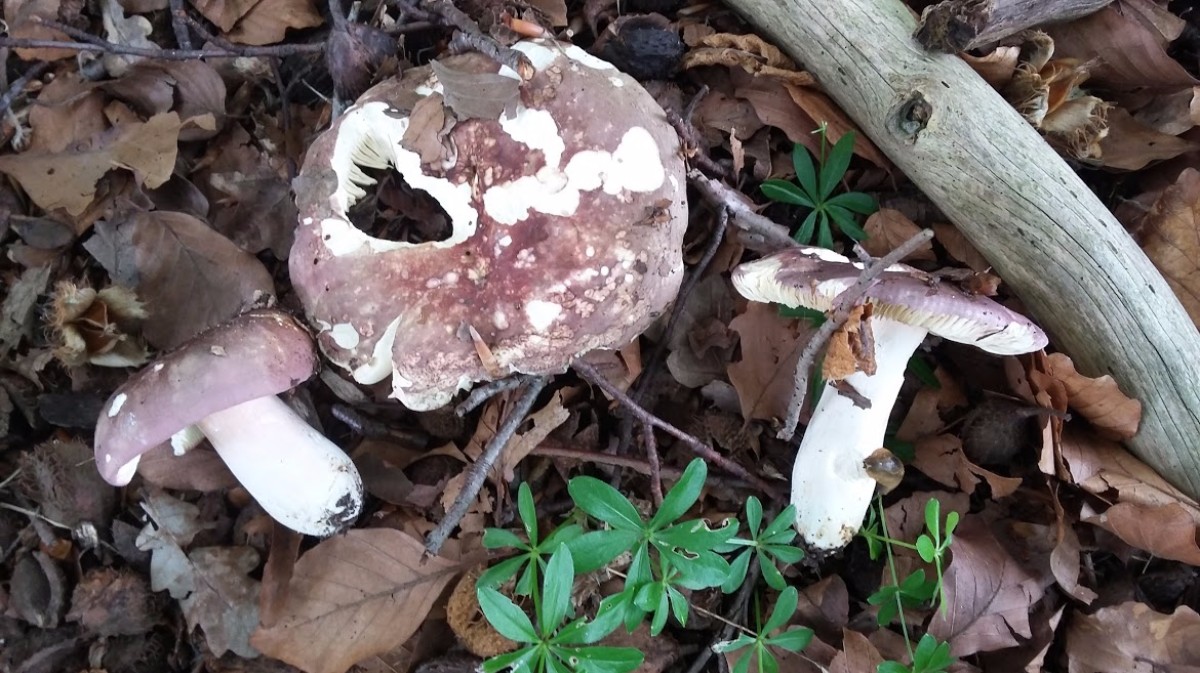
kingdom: Fungi
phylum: Basidiomycota
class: Agaricomycetes
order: Russulales
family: Russulaceae
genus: Russula
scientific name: Russula olivacea
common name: stor skørhat
